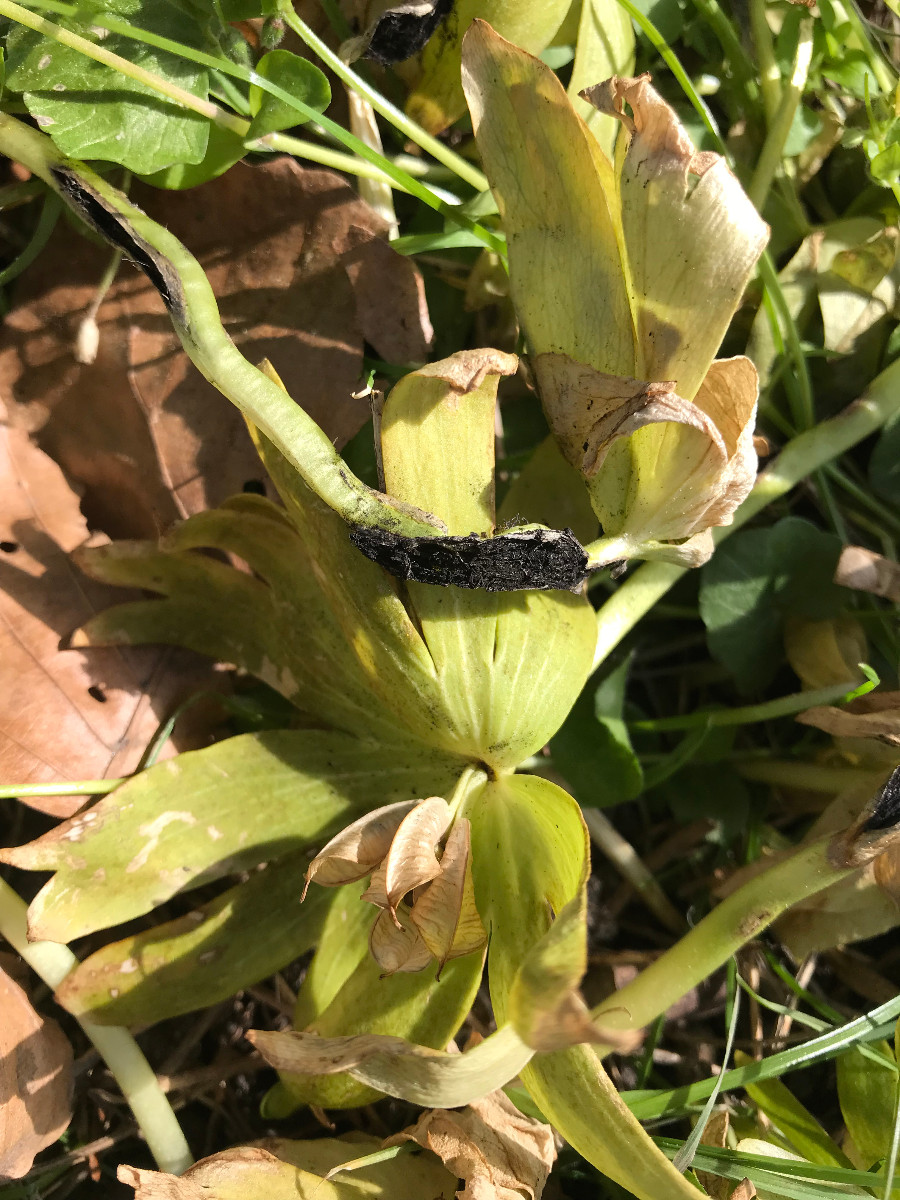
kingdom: Fungi
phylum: Basidiomycota
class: Ustilaginomycetes
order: Urocystidales
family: Urocystidaceae
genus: Urocystis
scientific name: Urocystis eranthidis
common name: erantis-brand
